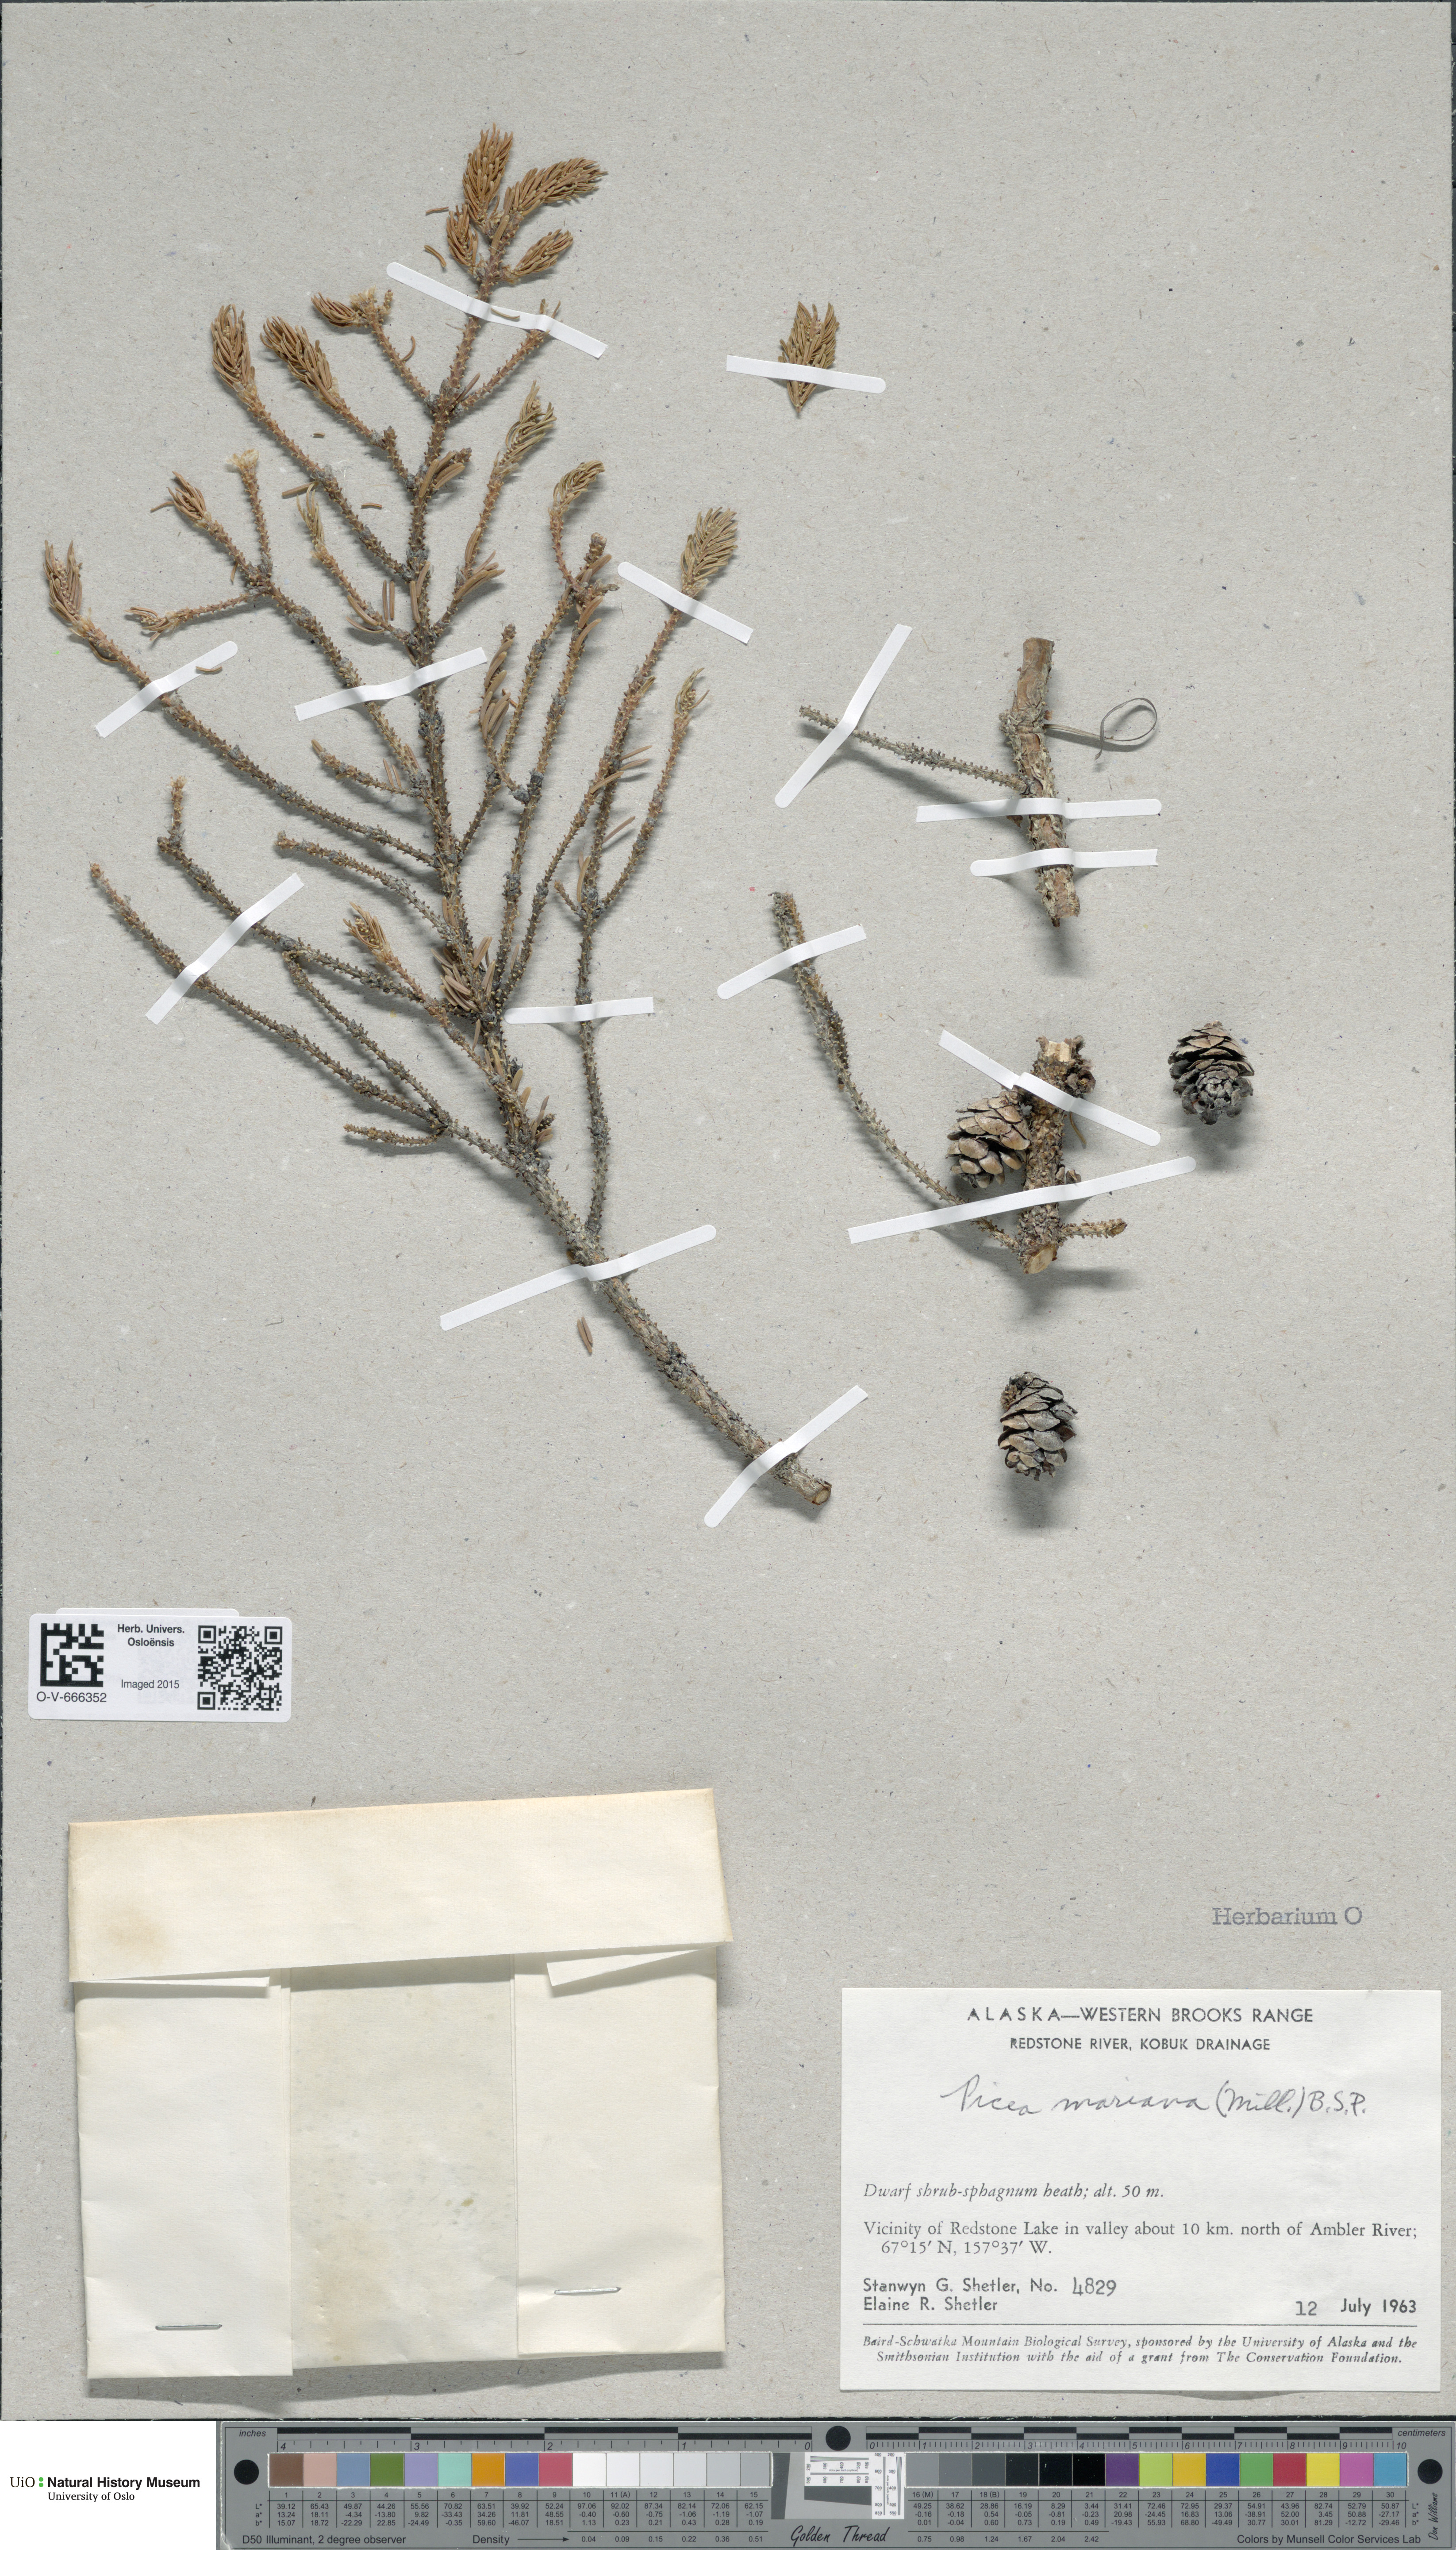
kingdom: Plantae
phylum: Tracheophyta
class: Pinopsida
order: Pinales
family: Pinaceae
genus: Picea
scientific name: Picea mariana
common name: Black spruce
